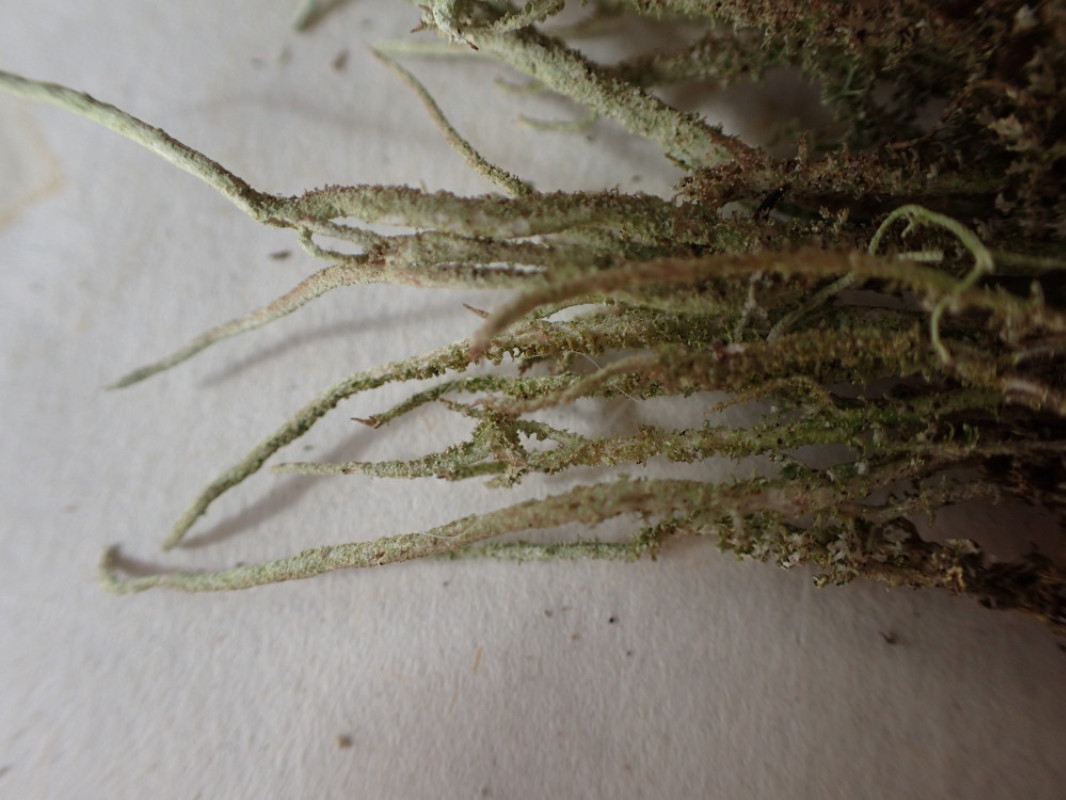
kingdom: Fungi
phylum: Ascomycota
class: Lecanoromycetes
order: Lecanorales
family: Cladoniaceae
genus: Cladonia
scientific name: Cladonia glauca
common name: grågrøn bægerlav
